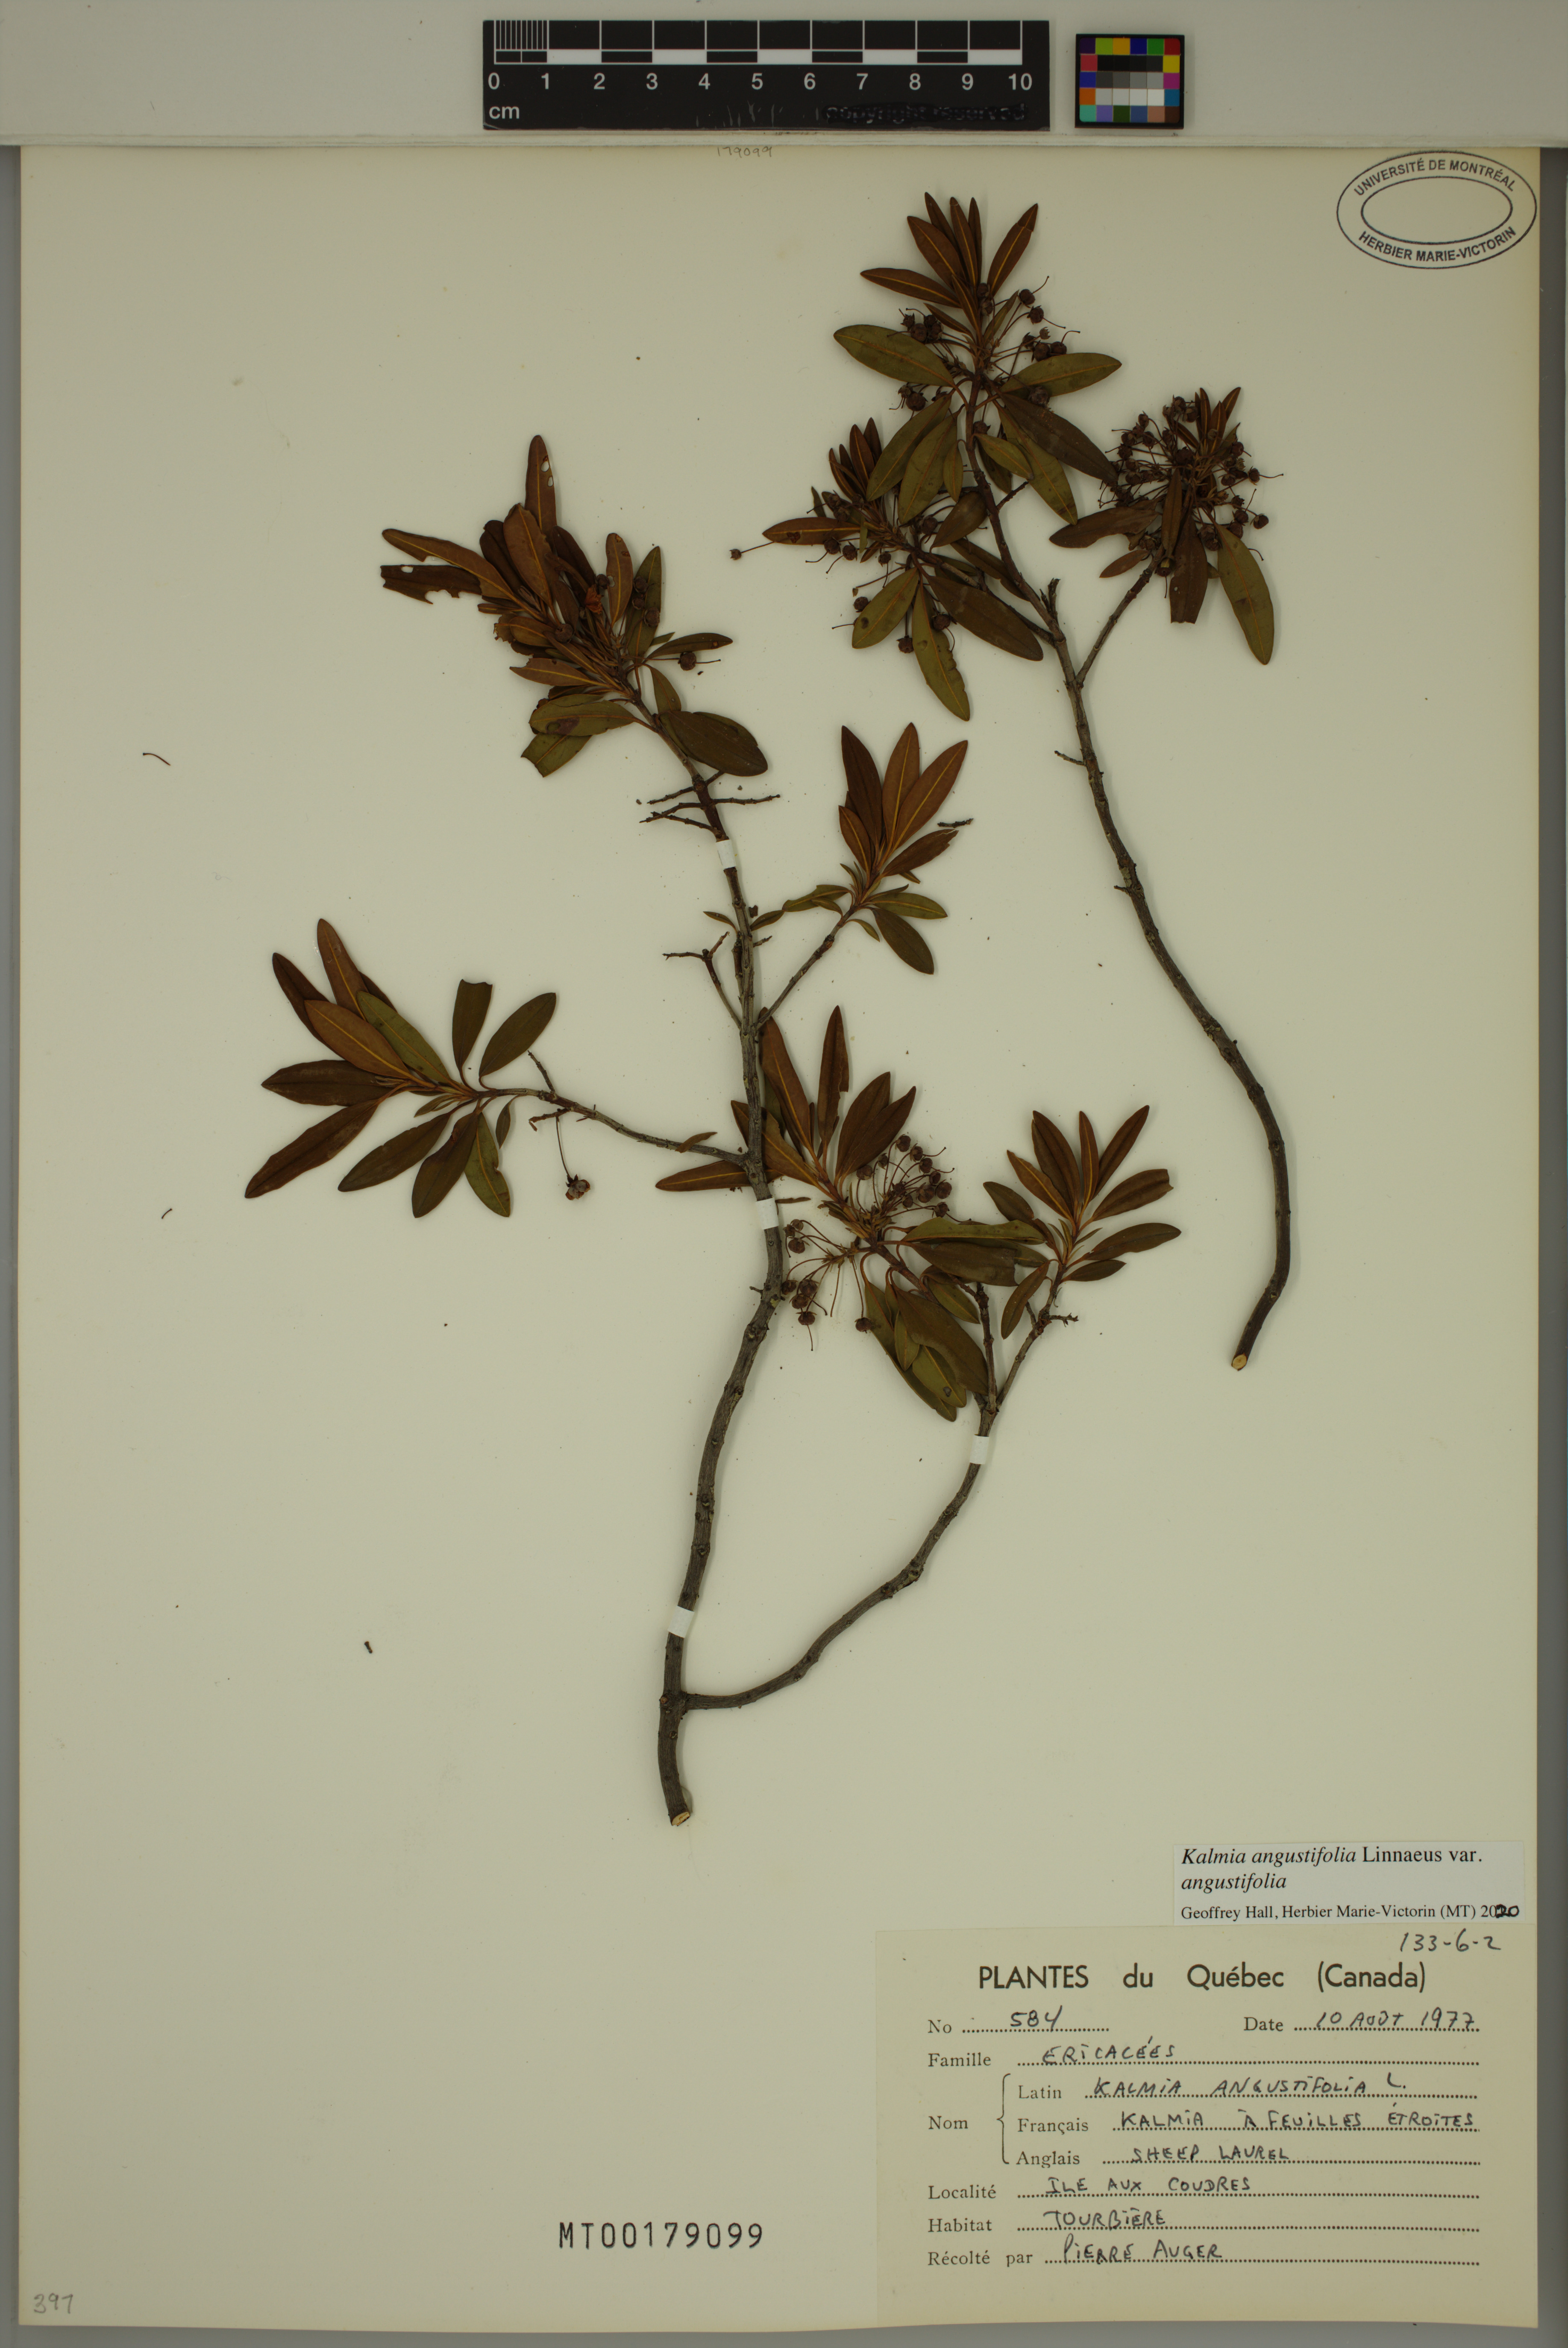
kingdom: Plantae
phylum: Tracheophyta
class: Magnoliopsida
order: Ericales
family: Ericaceae
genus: Kalmia
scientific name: Kalmia angustifolia
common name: Sheep-laurel
